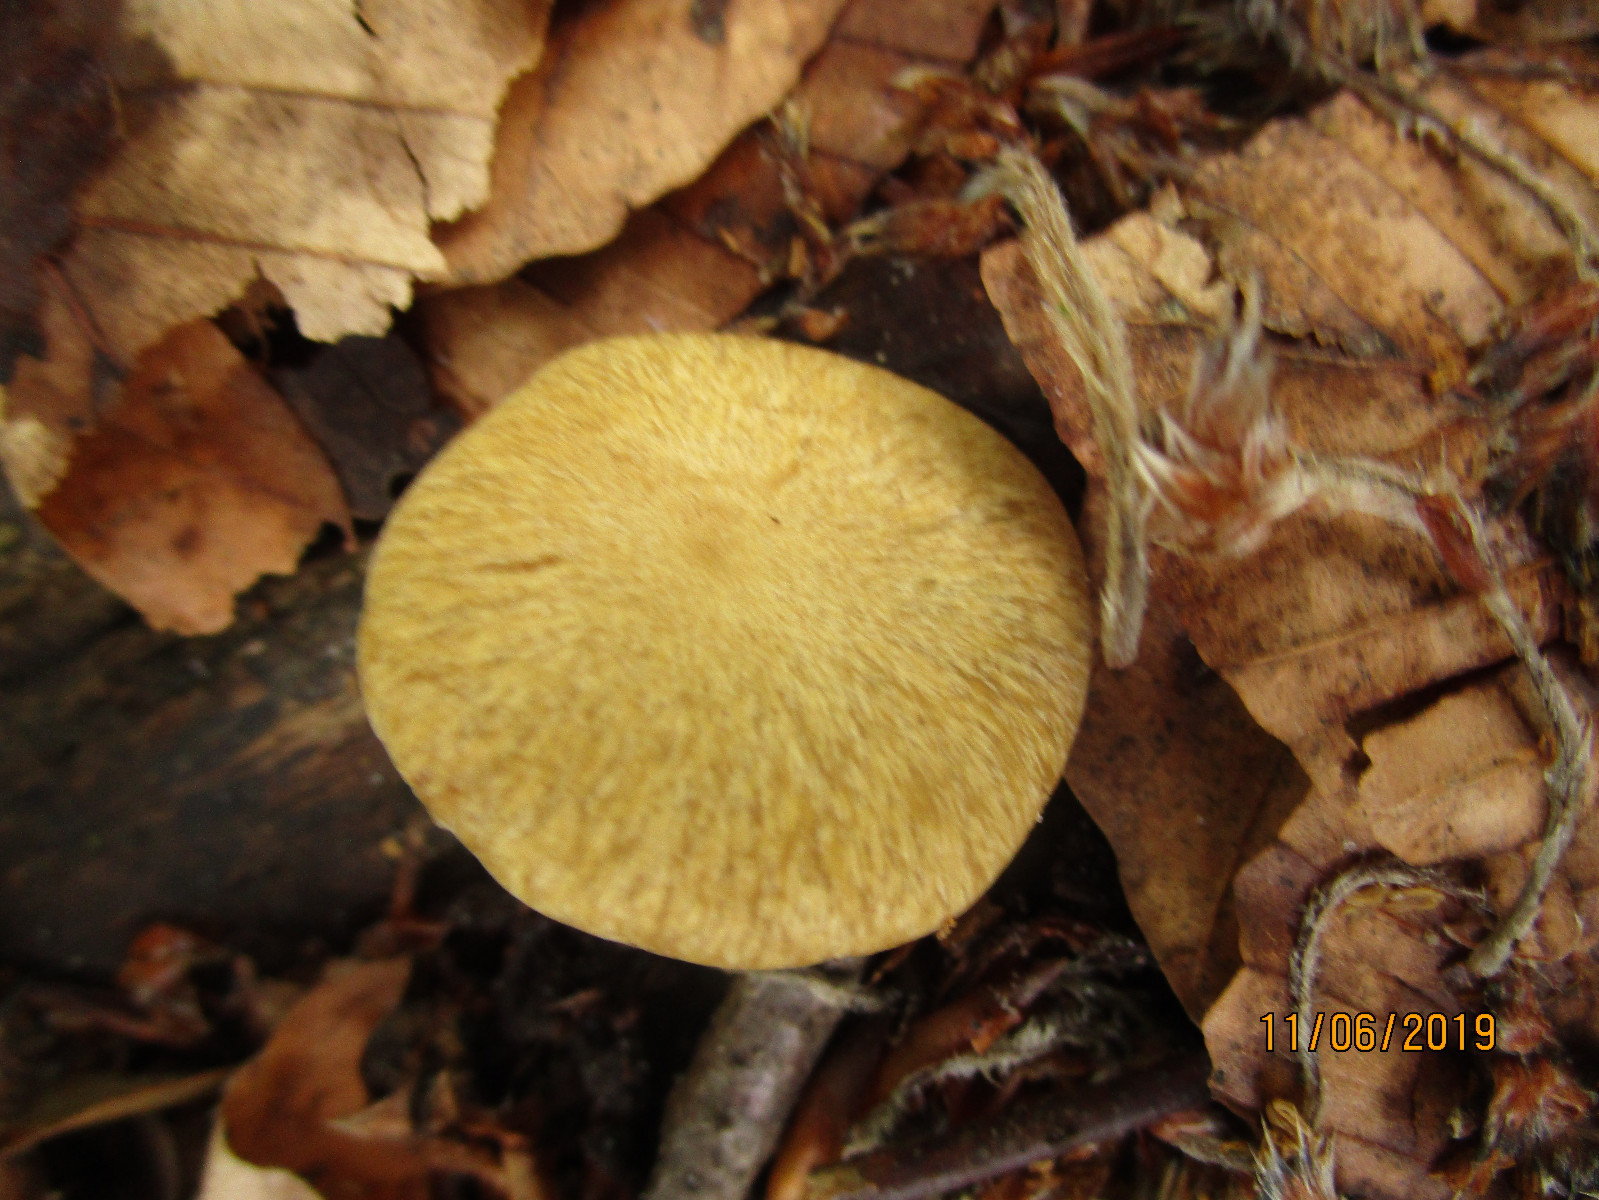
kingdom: Fungi
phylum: Basidiomycota
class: Agaricomycetes
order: Polyporales
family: Polyporaceae
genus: Cerioporus
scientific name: Cerioporus varius
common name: foranderlig stilkporesvamp
